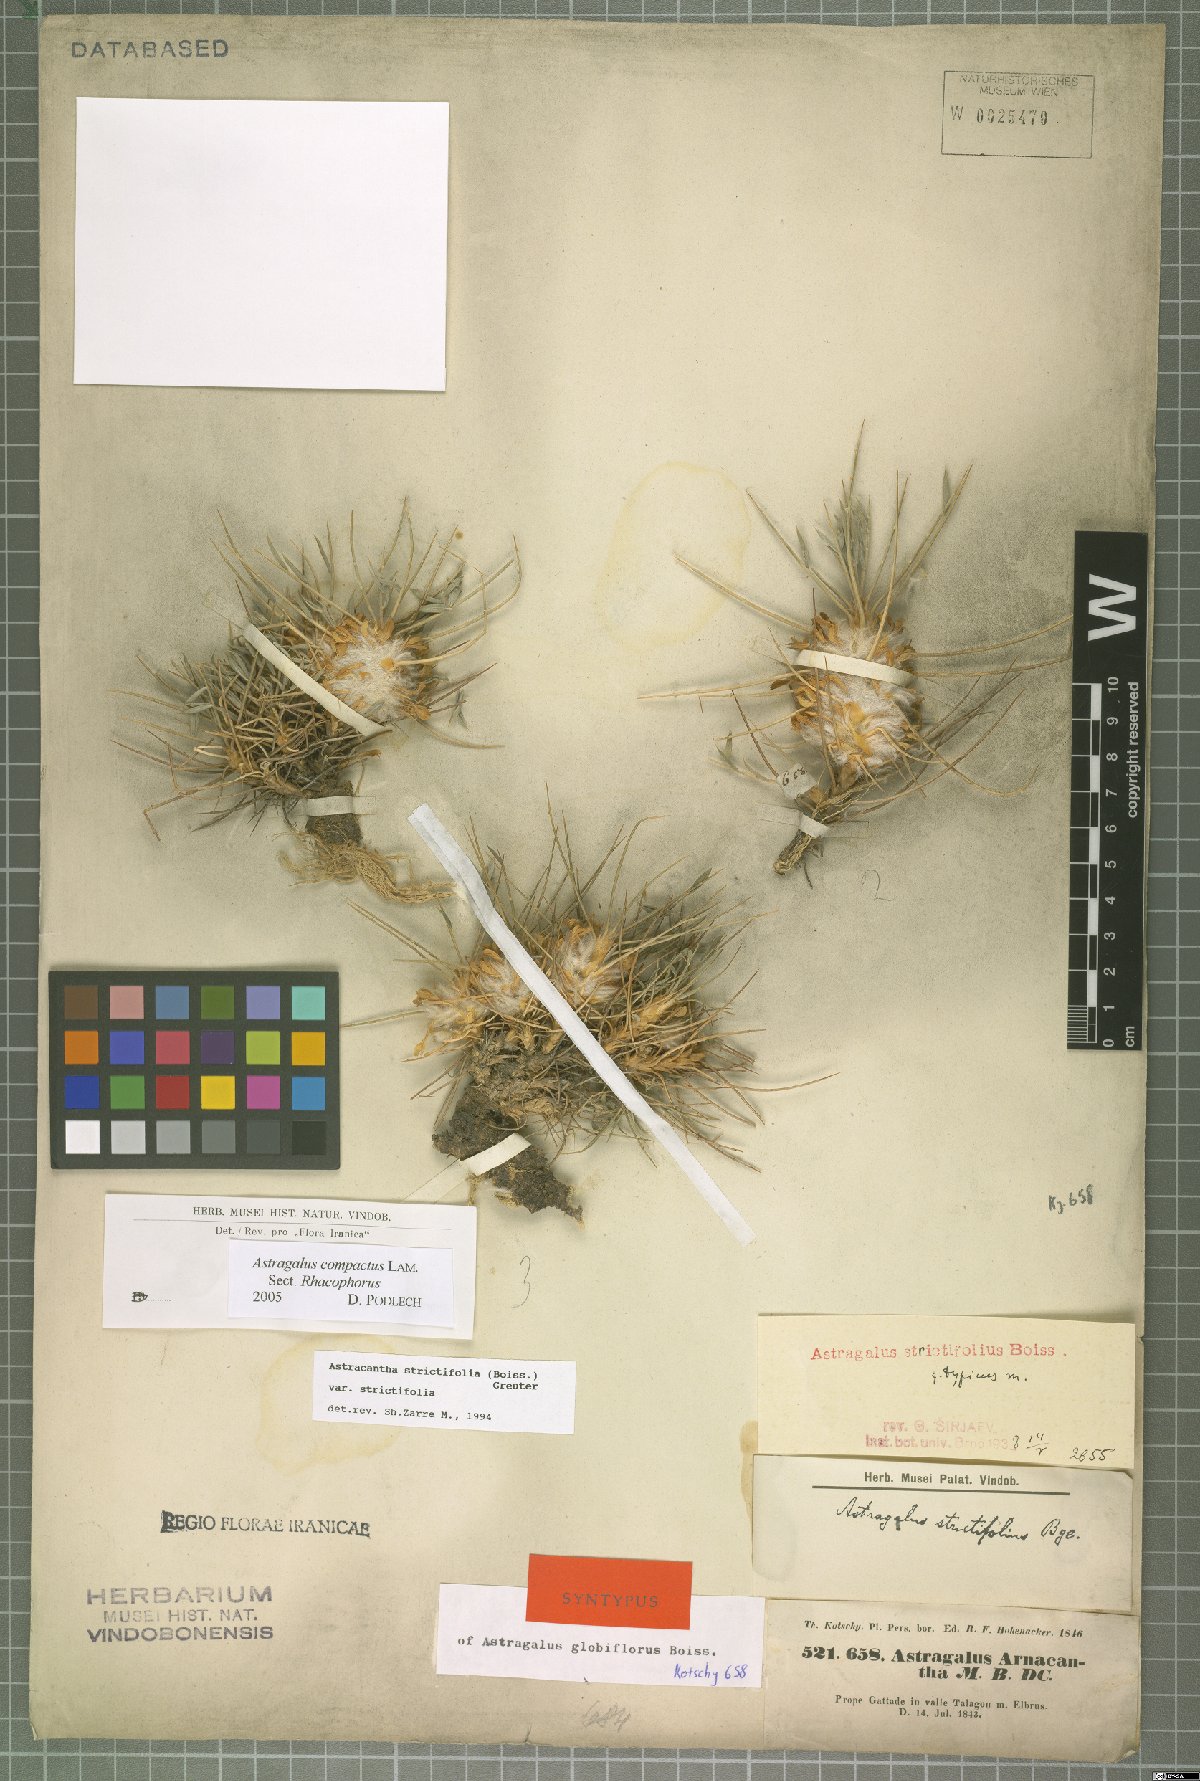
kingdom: Plantae
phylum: Tracheophyta
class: Magnoliopsida
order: Fabales
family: Fabaceae
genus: Astragalus
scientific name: Astragalus globiflorus
